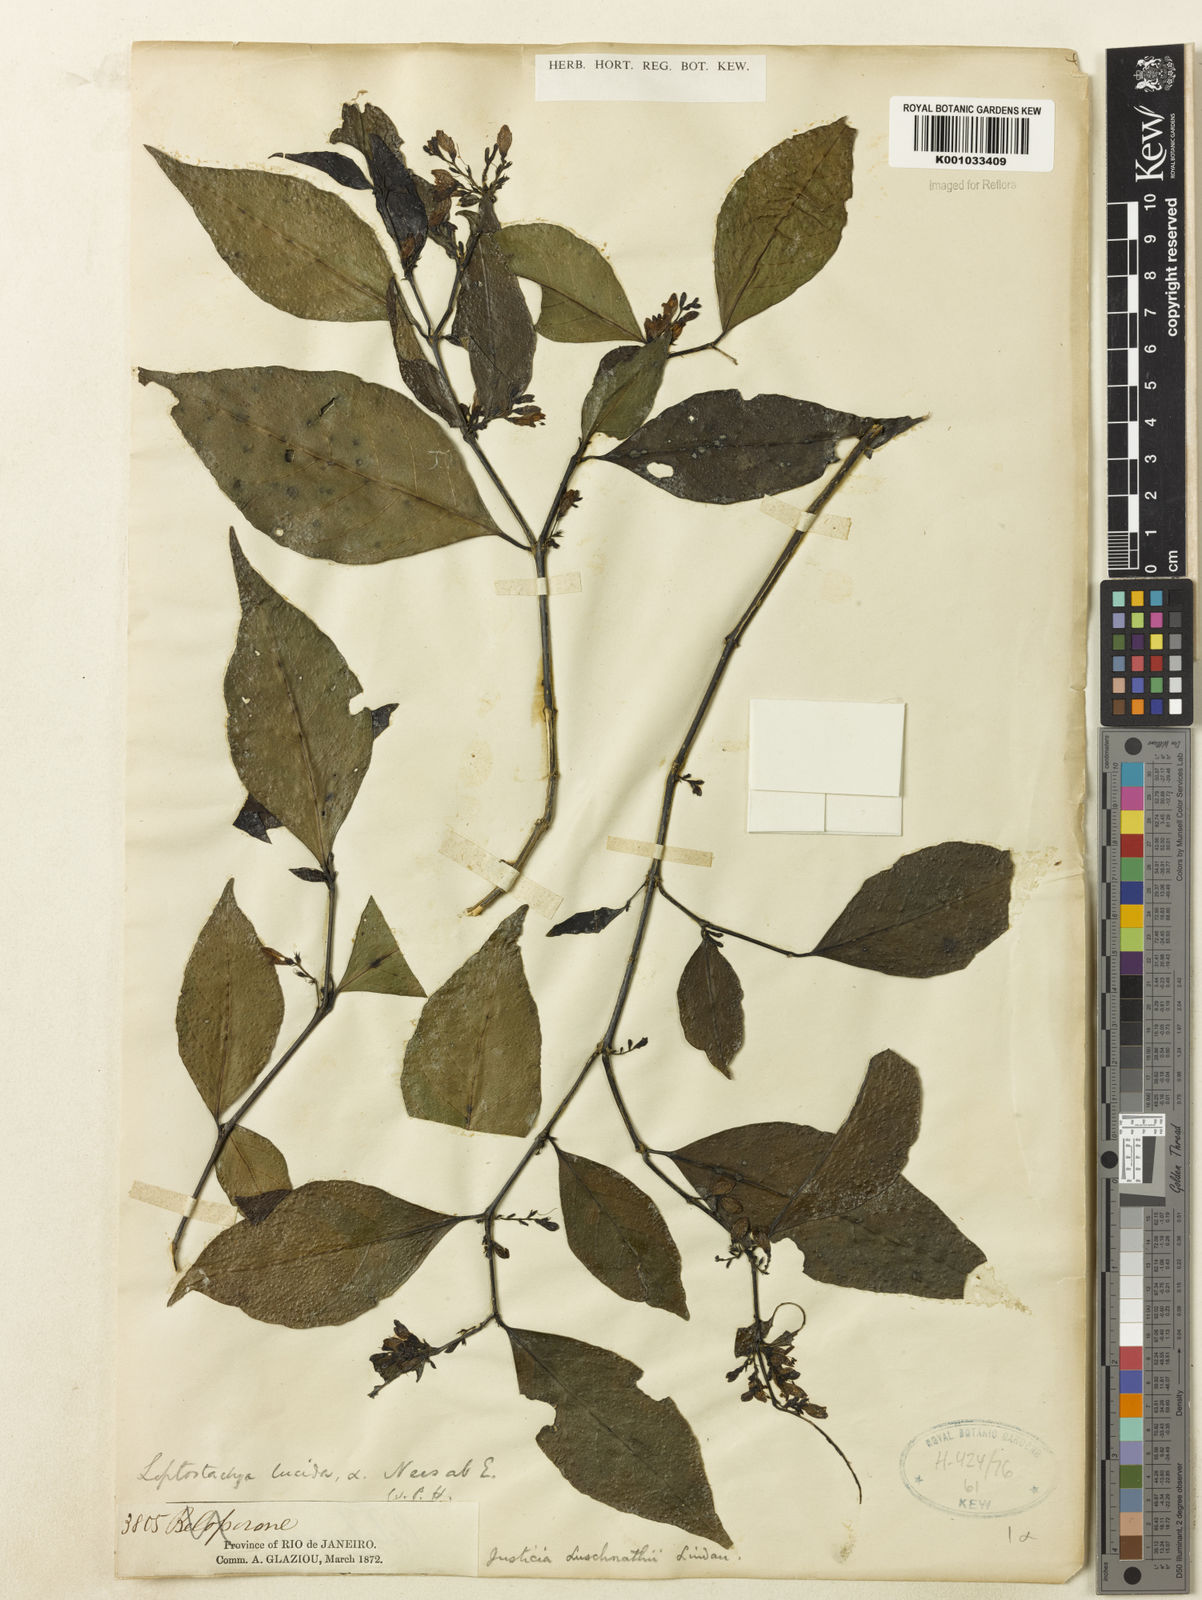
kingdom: Plantae
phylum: Tracheophyta
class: Magnoliopsida
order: Lamiales
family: Acanthaceae
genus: Justicia
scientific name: Justicia luschnathii
